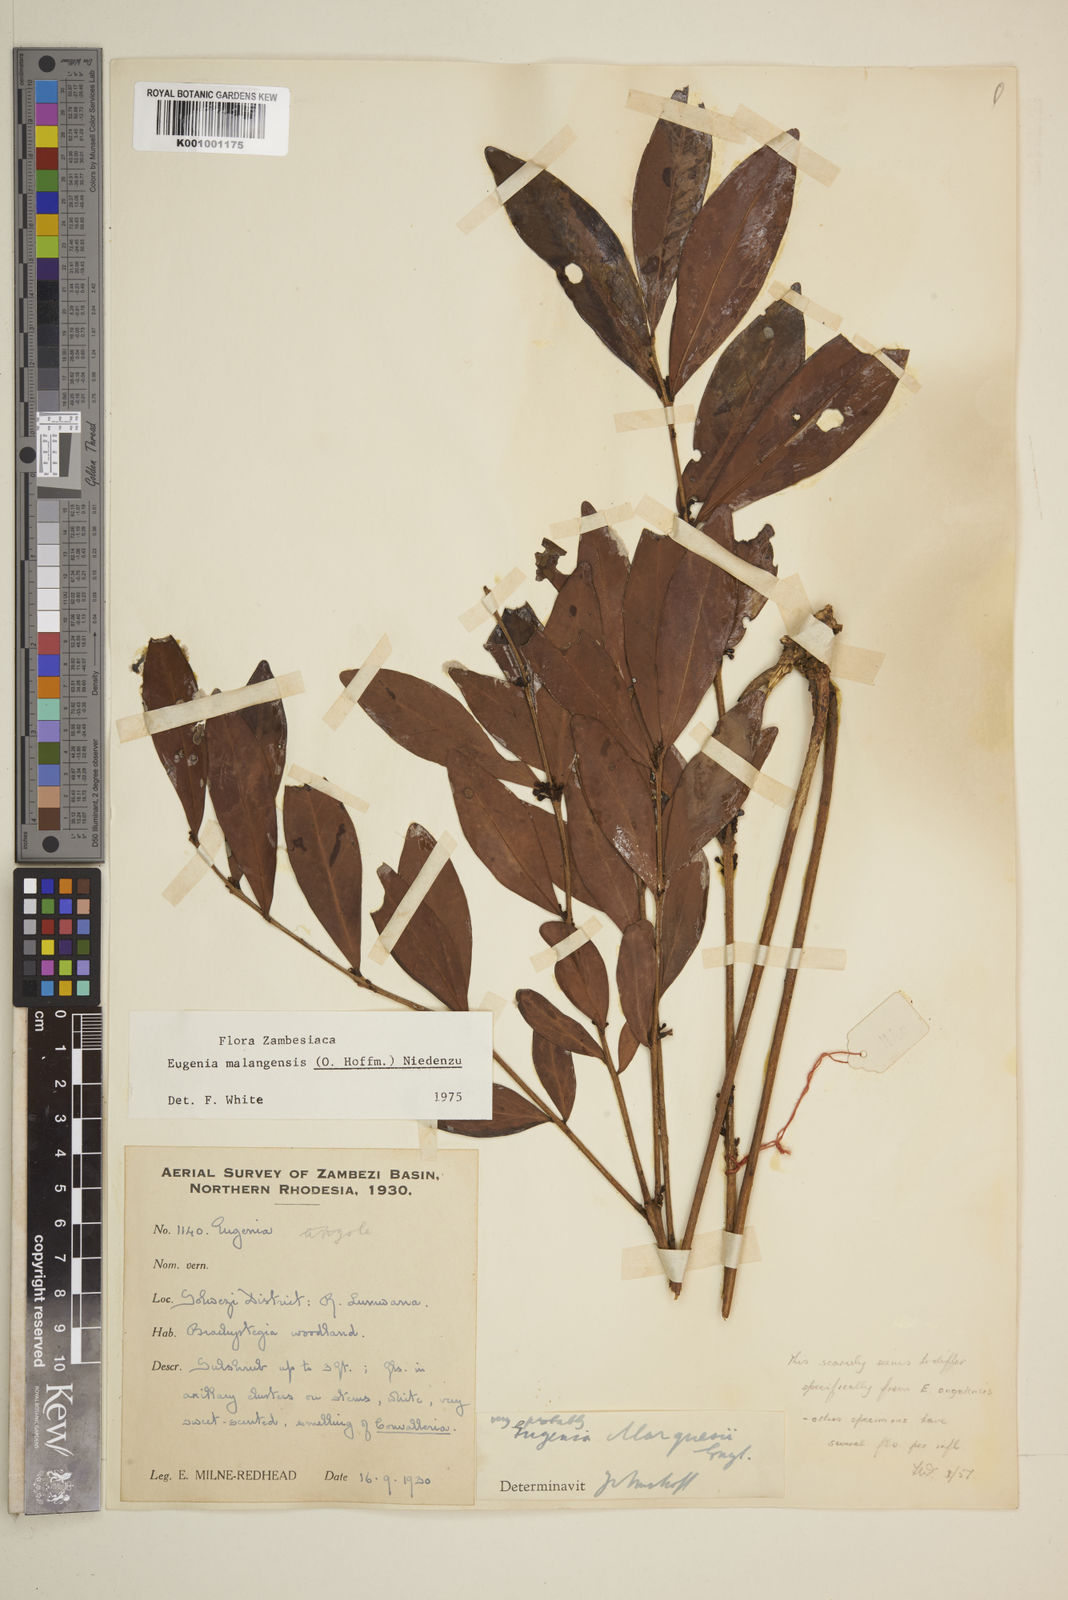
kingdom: Plantae
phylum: Tracheophyta
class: Magnoliopsida
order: Myrtales
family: Myrtaceae
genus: Eugenia
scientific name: Eugenia malangensis
